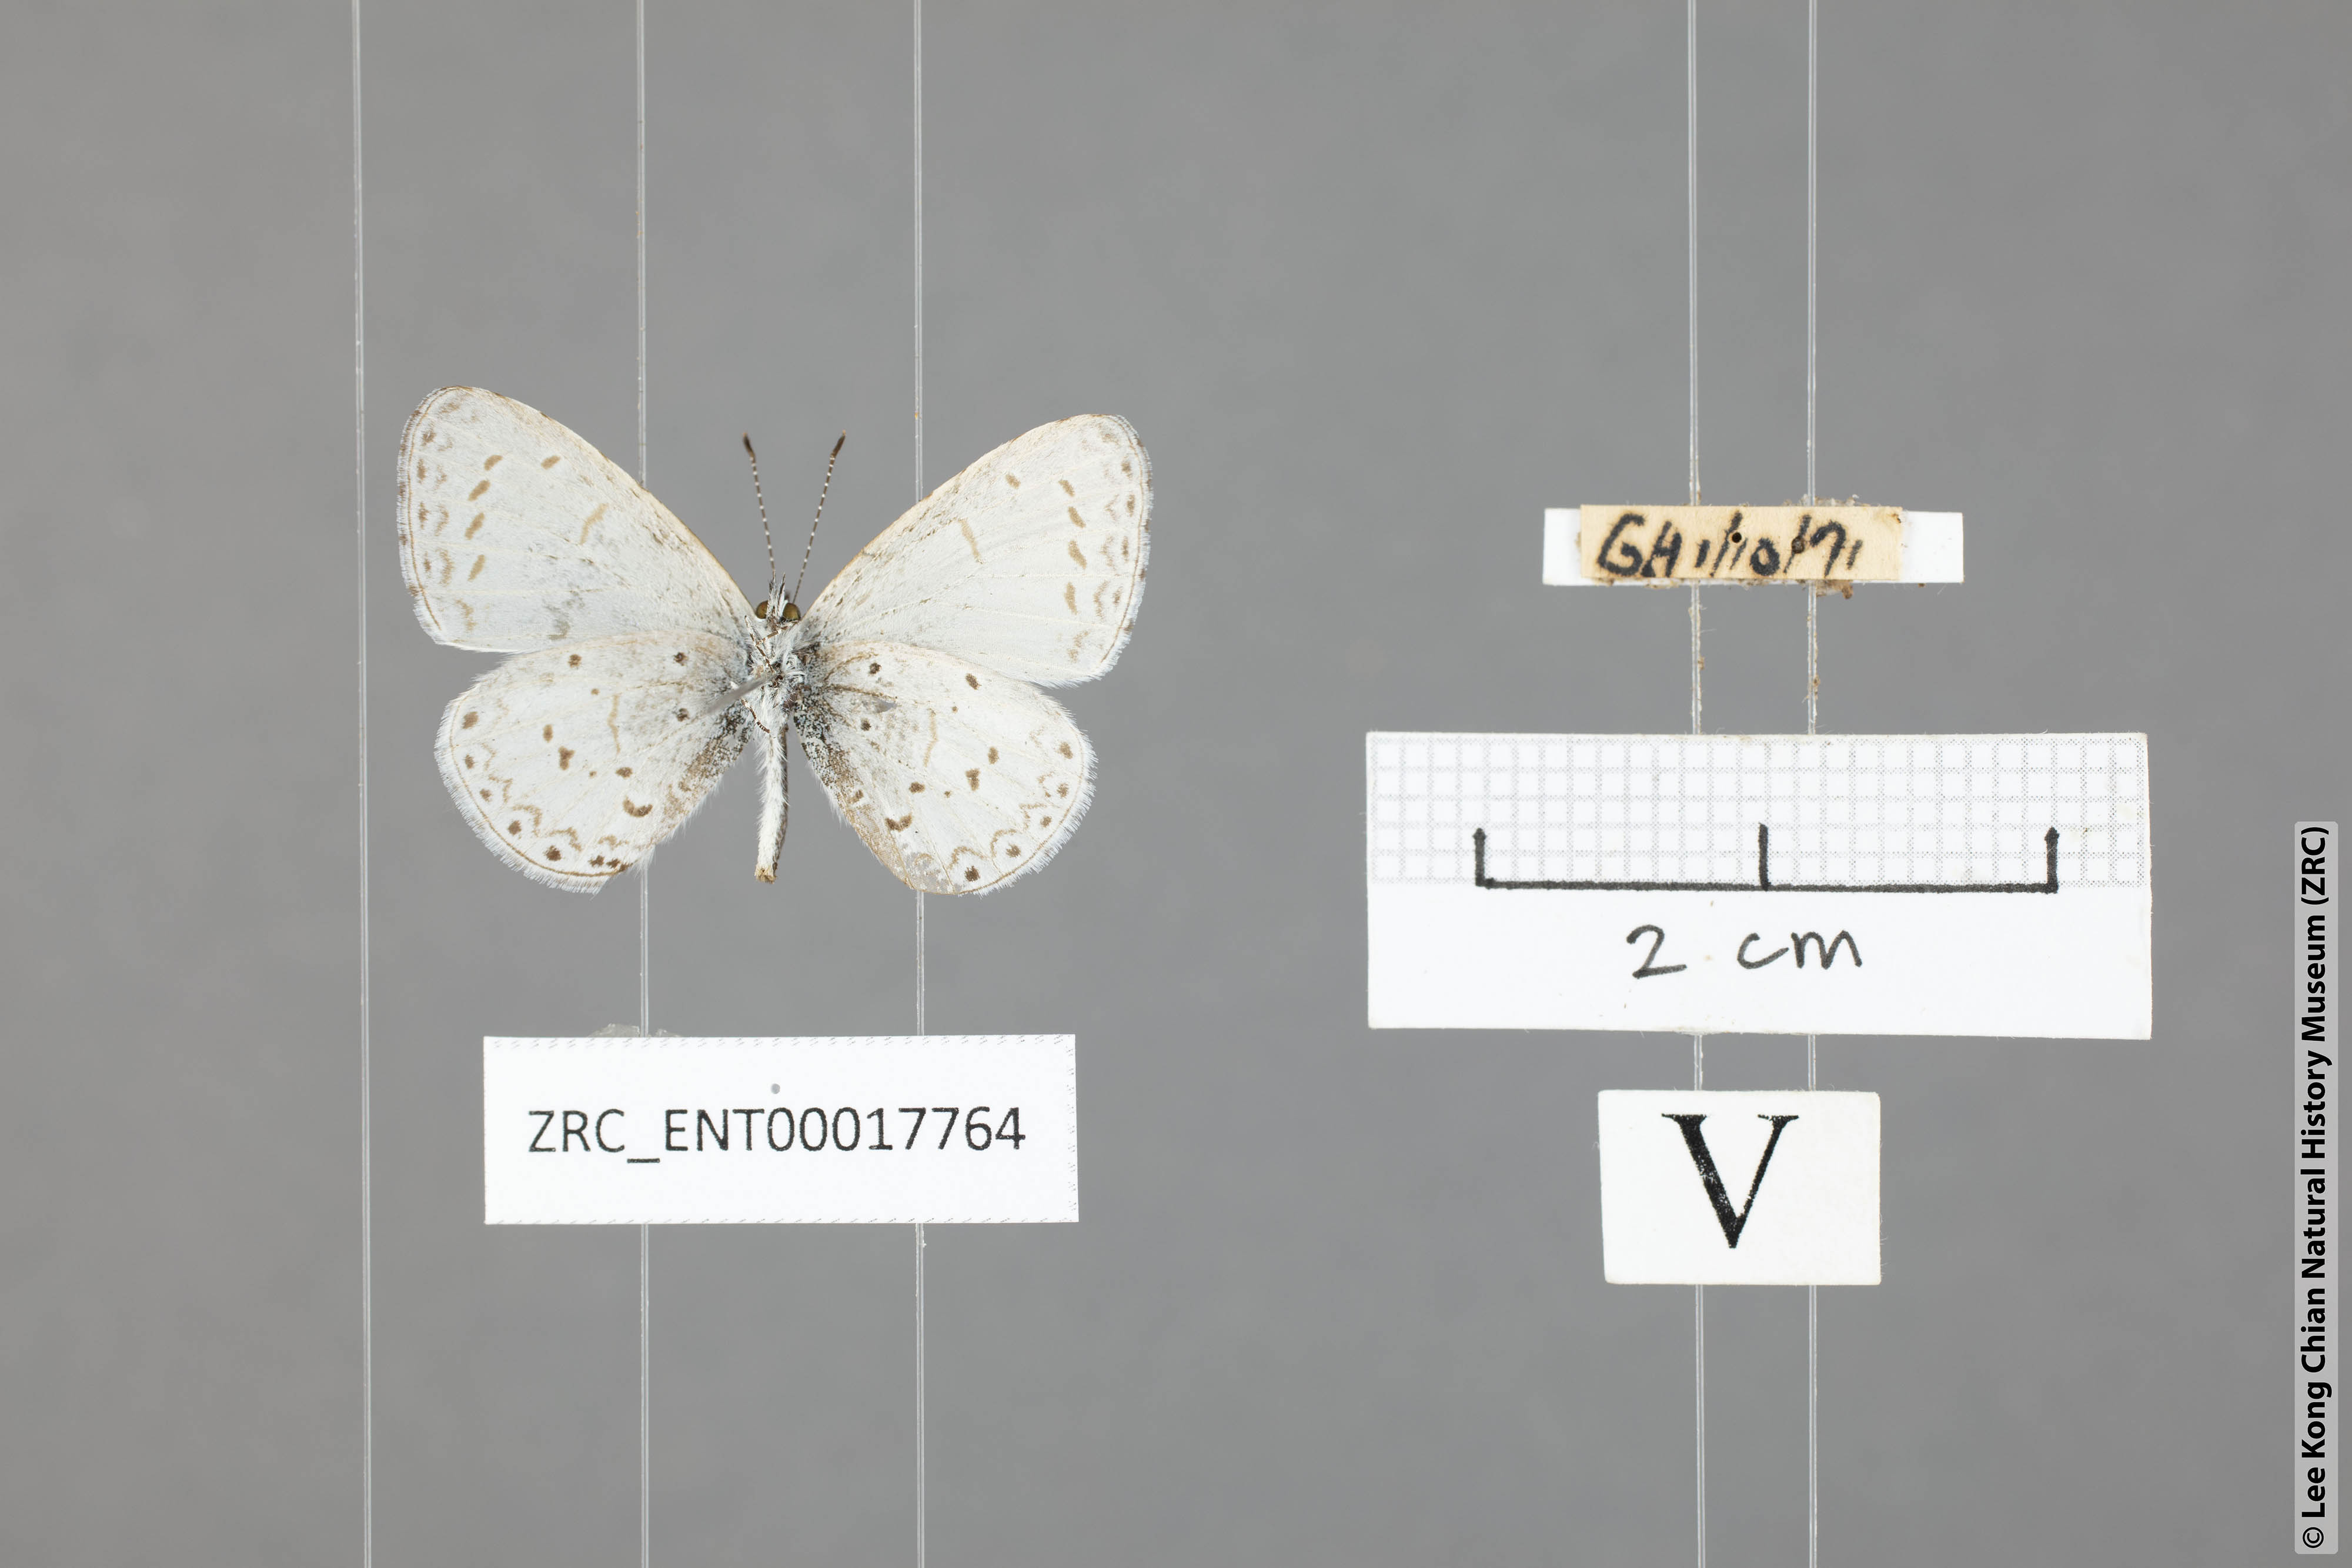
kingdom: Animalia
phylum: Arthropoda
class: Insecta
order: Lepidoptera
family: Lycaenidae
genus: Udara
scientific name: Udara dilectus
